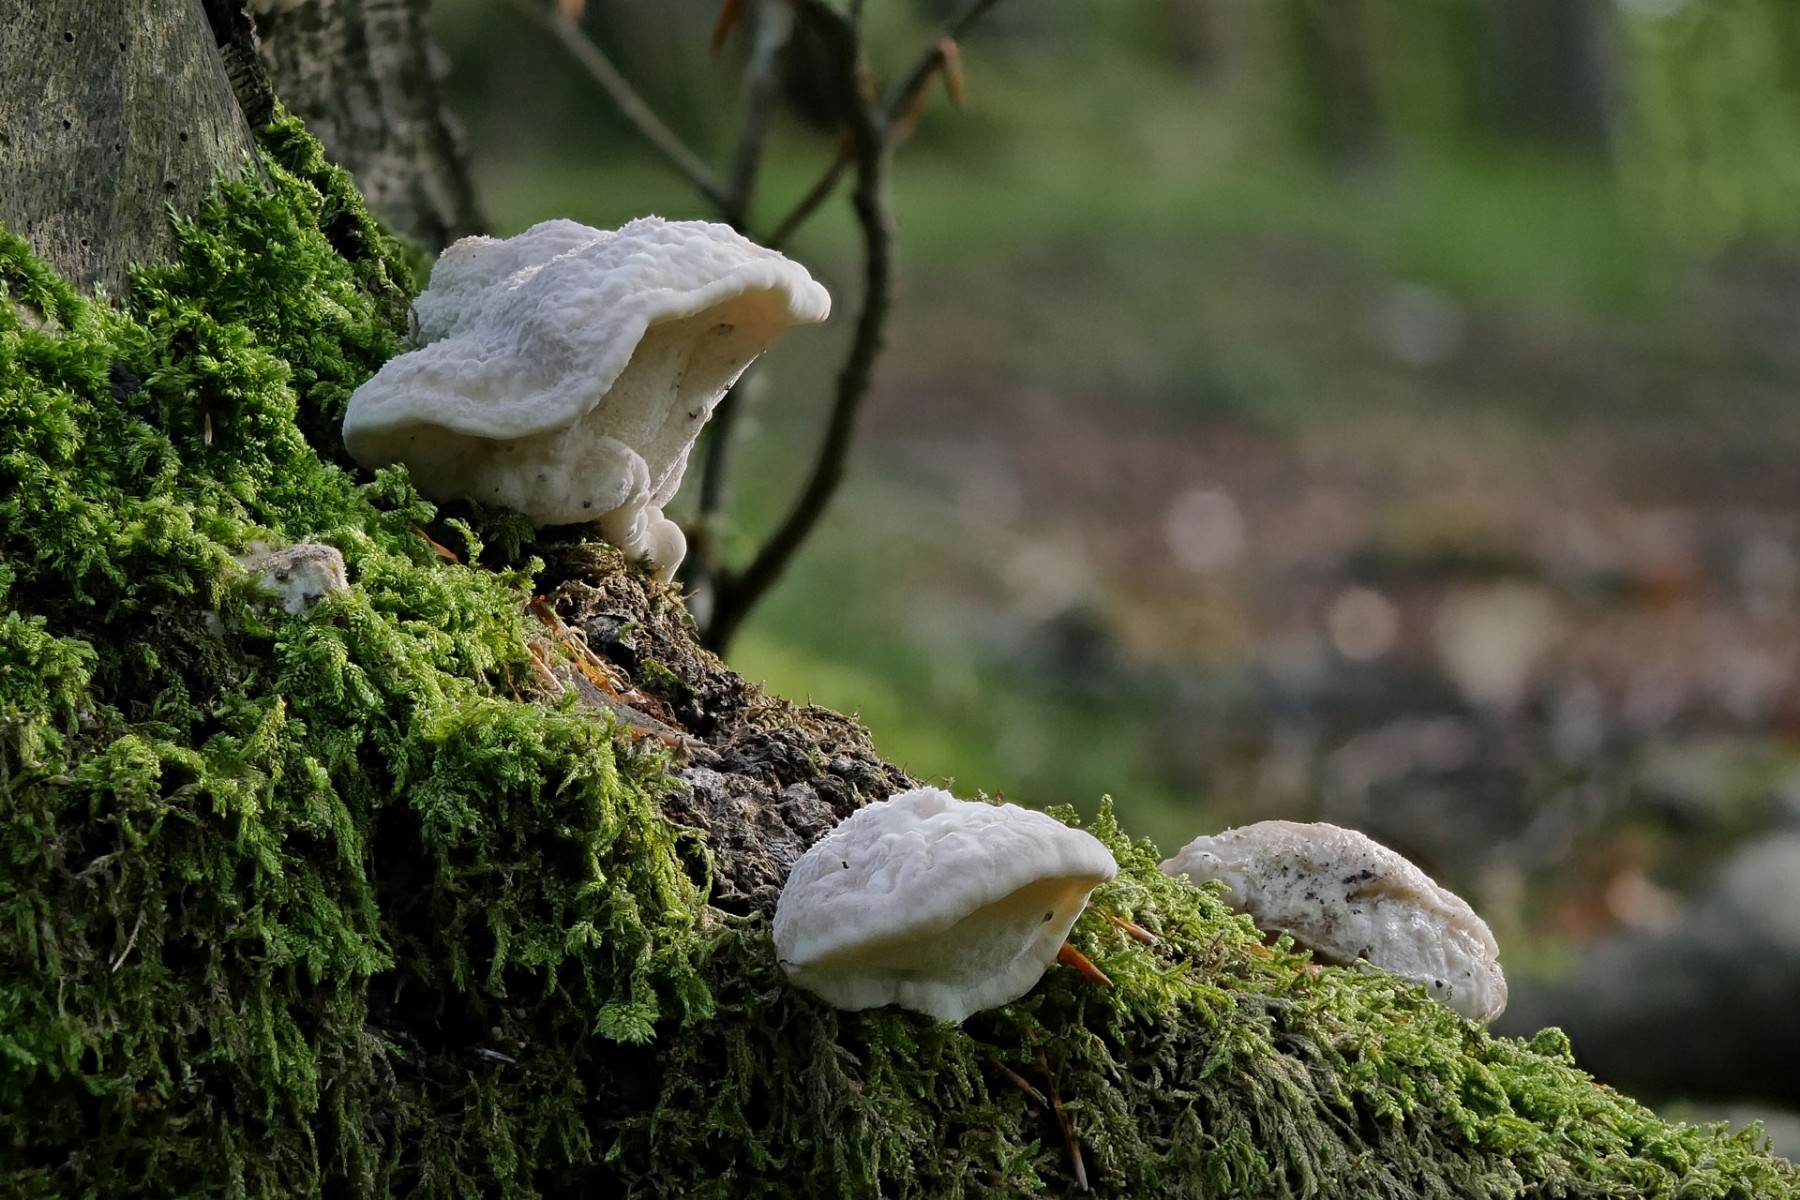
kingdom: Fungi
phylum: Basidiomycota
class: Agaricomycetes
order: Polyporales
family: Dacryobolaceae
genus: Postia
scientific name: Postia
